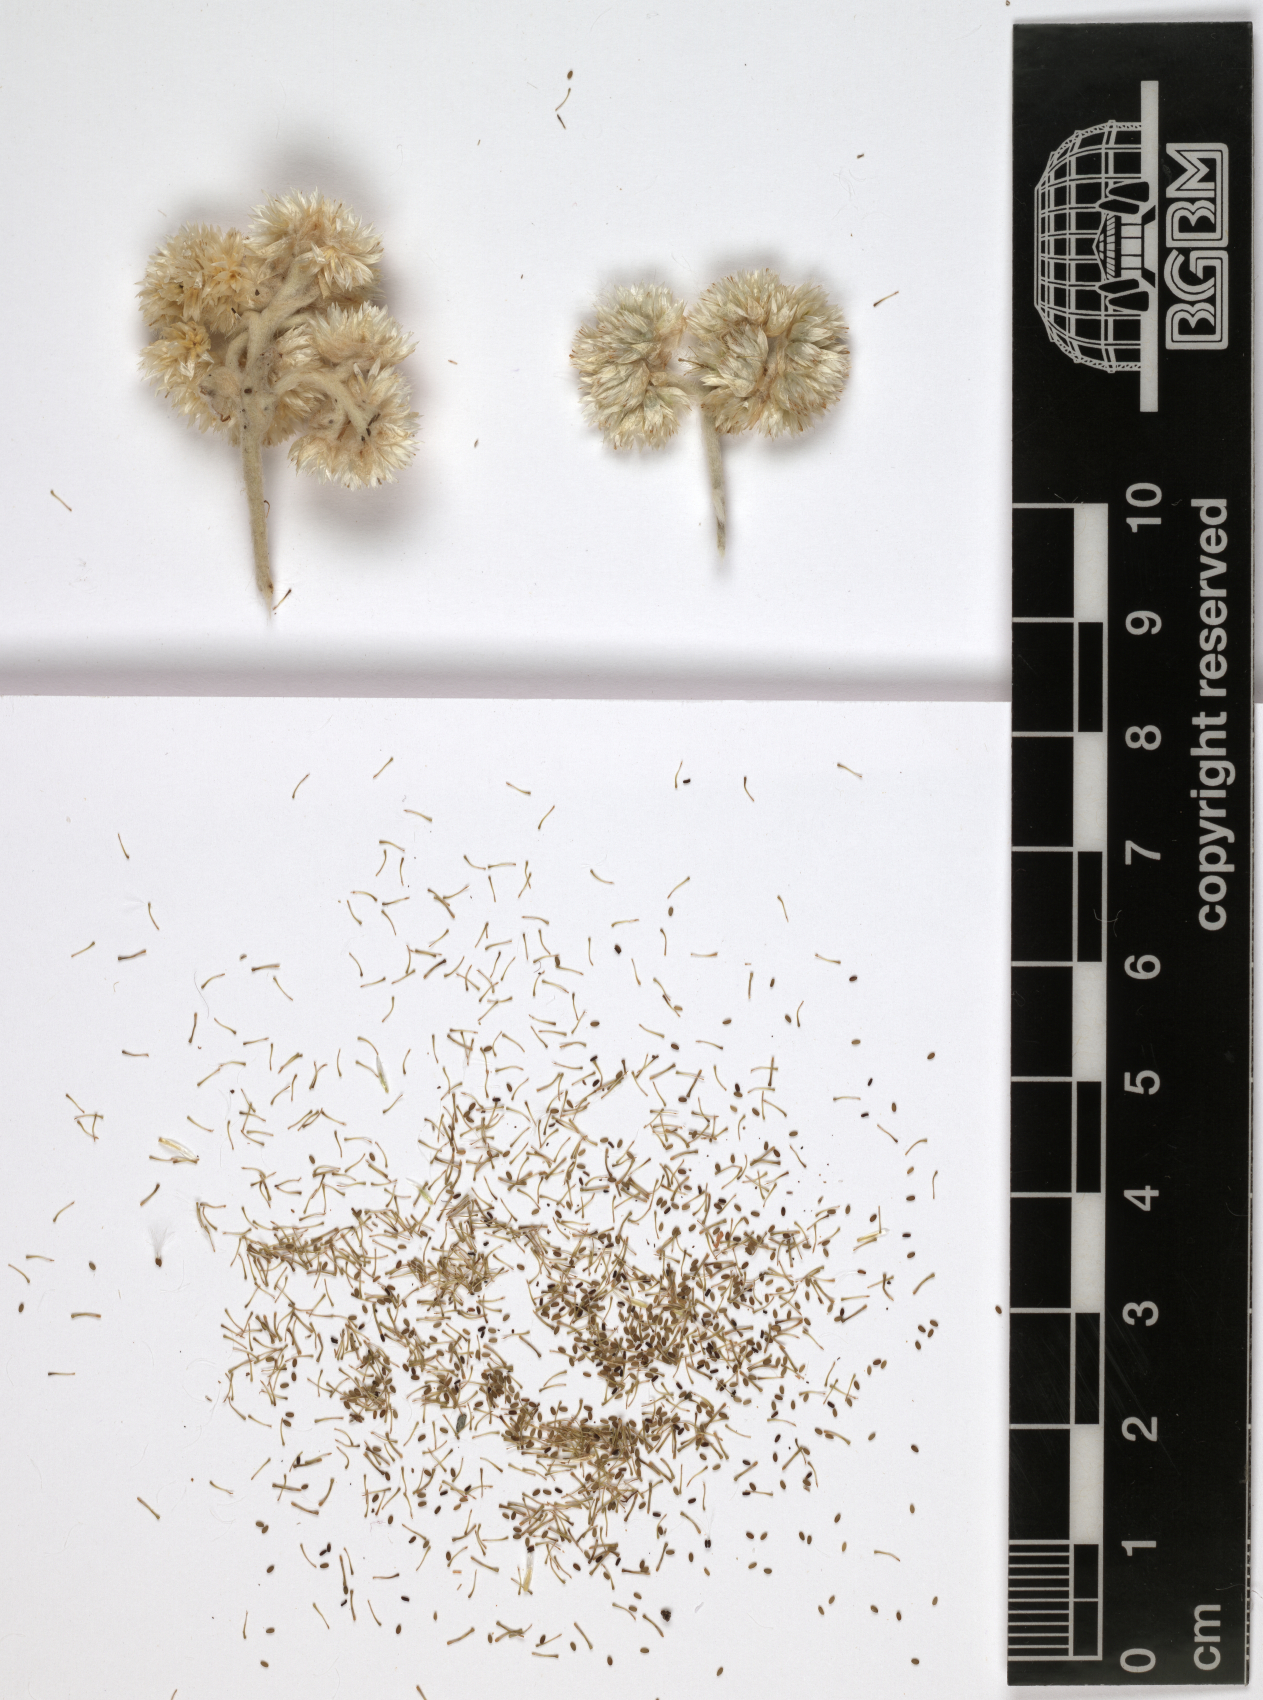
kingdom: Plantae
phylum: Tracheophyta
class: Magnoliopsida
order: Asterales
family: Asteraceae
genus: Helichrysum
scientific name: Helichrysum schimperi
